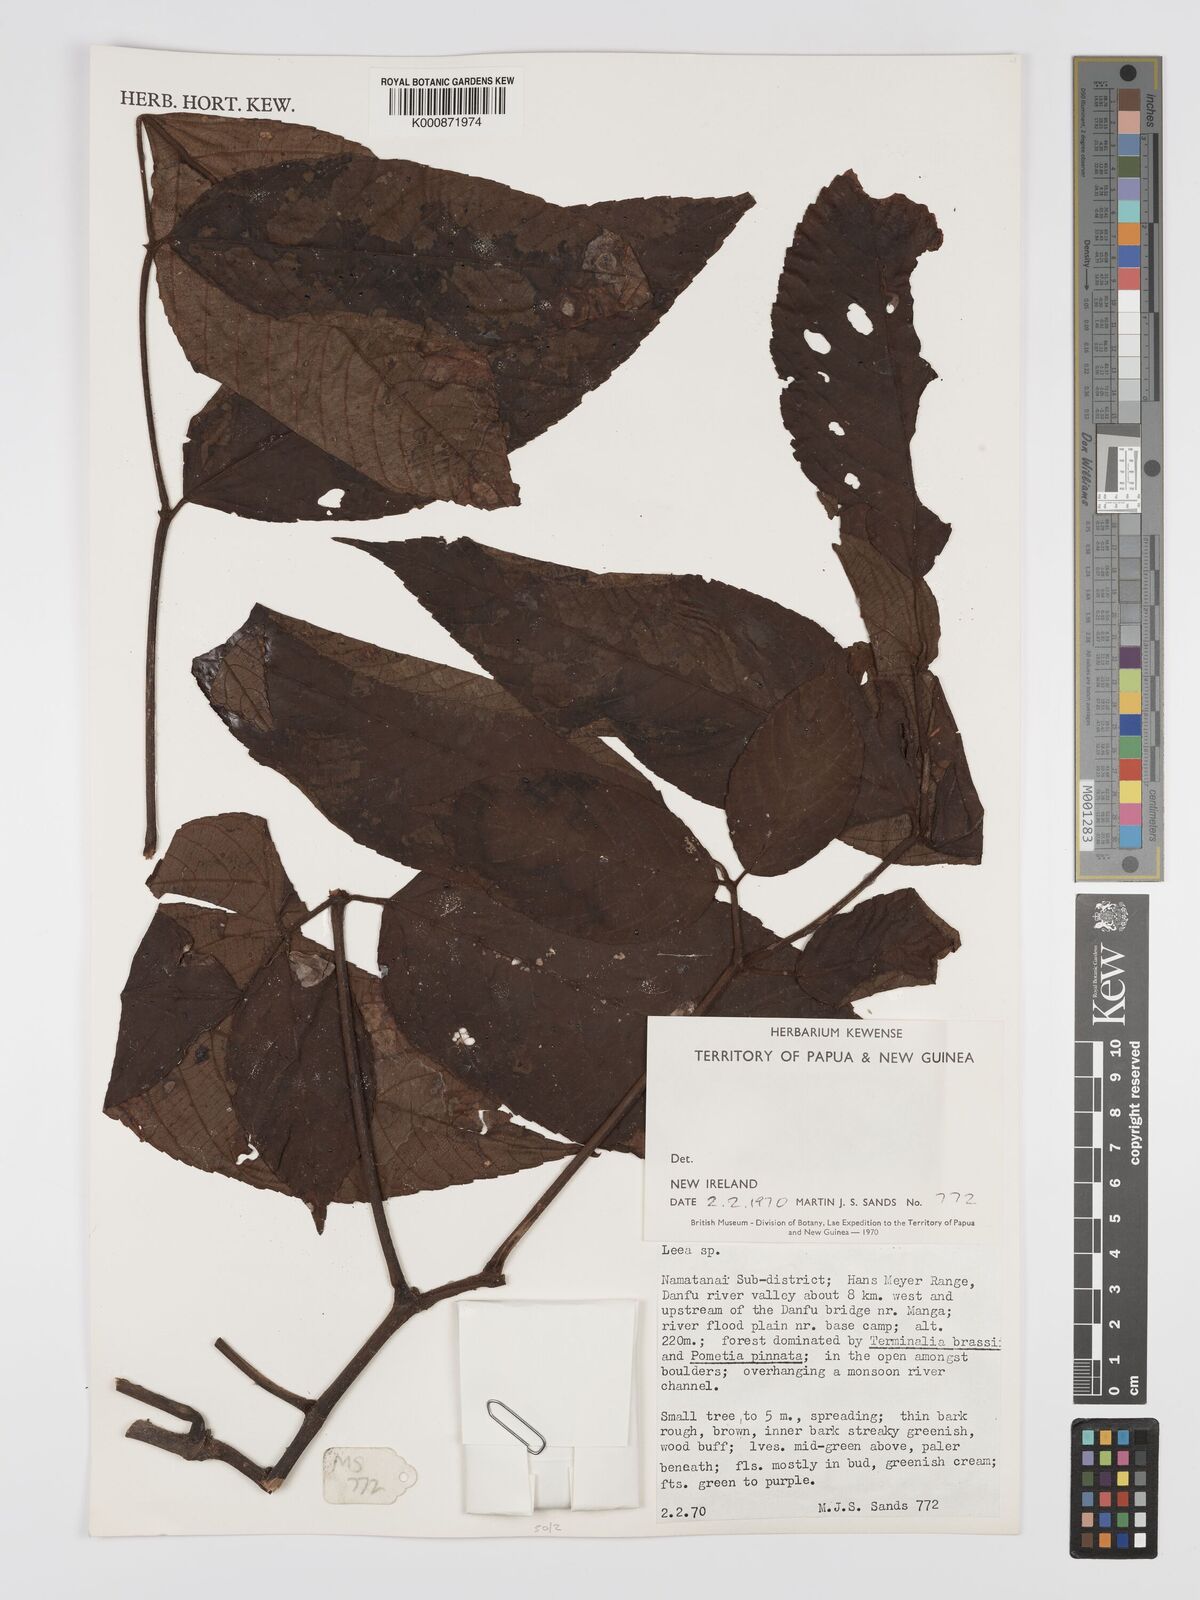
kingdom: Plantae
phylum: Tracheophyta
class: Magnoliopsida
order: Vitales
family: Vitaceae
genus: Leea
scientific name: Leea
